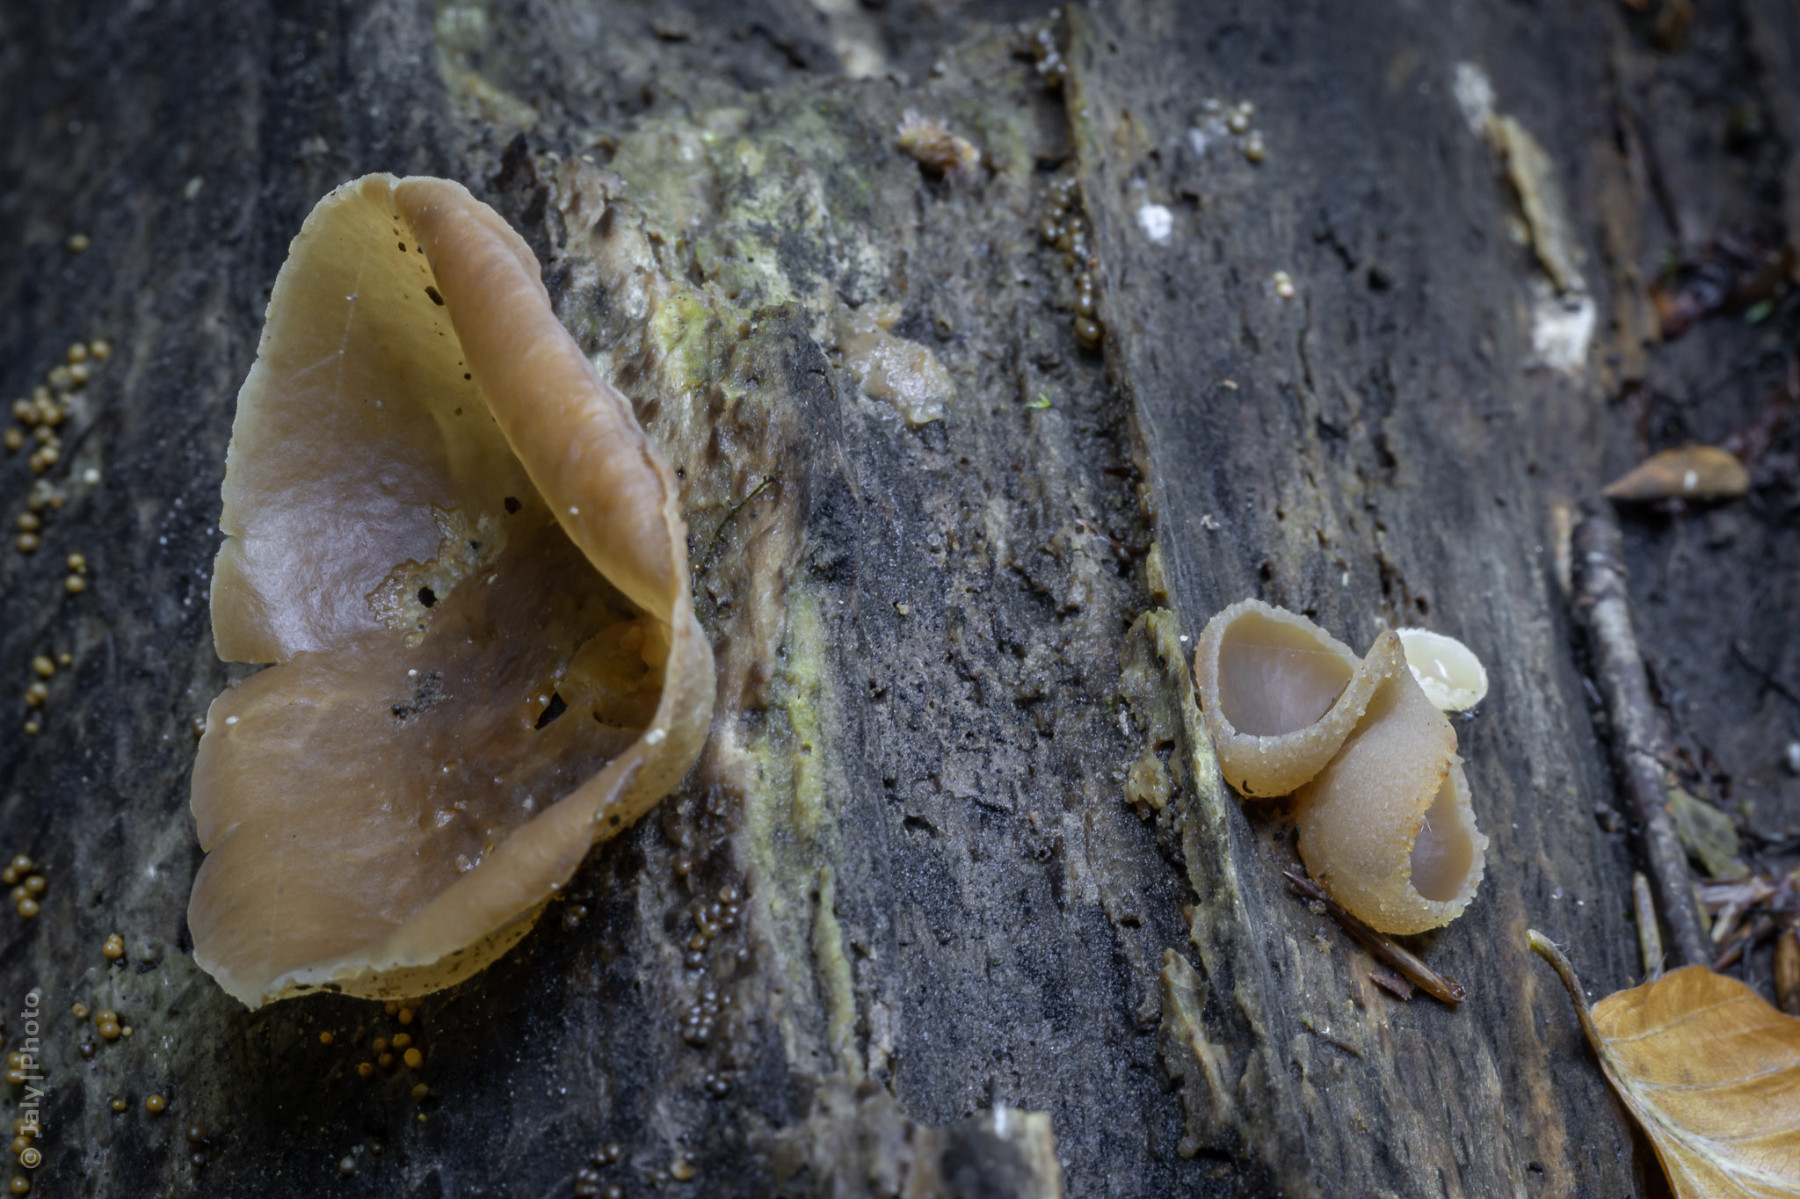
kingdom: Fungi
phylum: Ascomycota
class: Pezizomycetes
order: Pezizales
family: Pezizaceae
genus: Peziza
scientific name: Peziza varia
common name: Ved-bægersvamp
